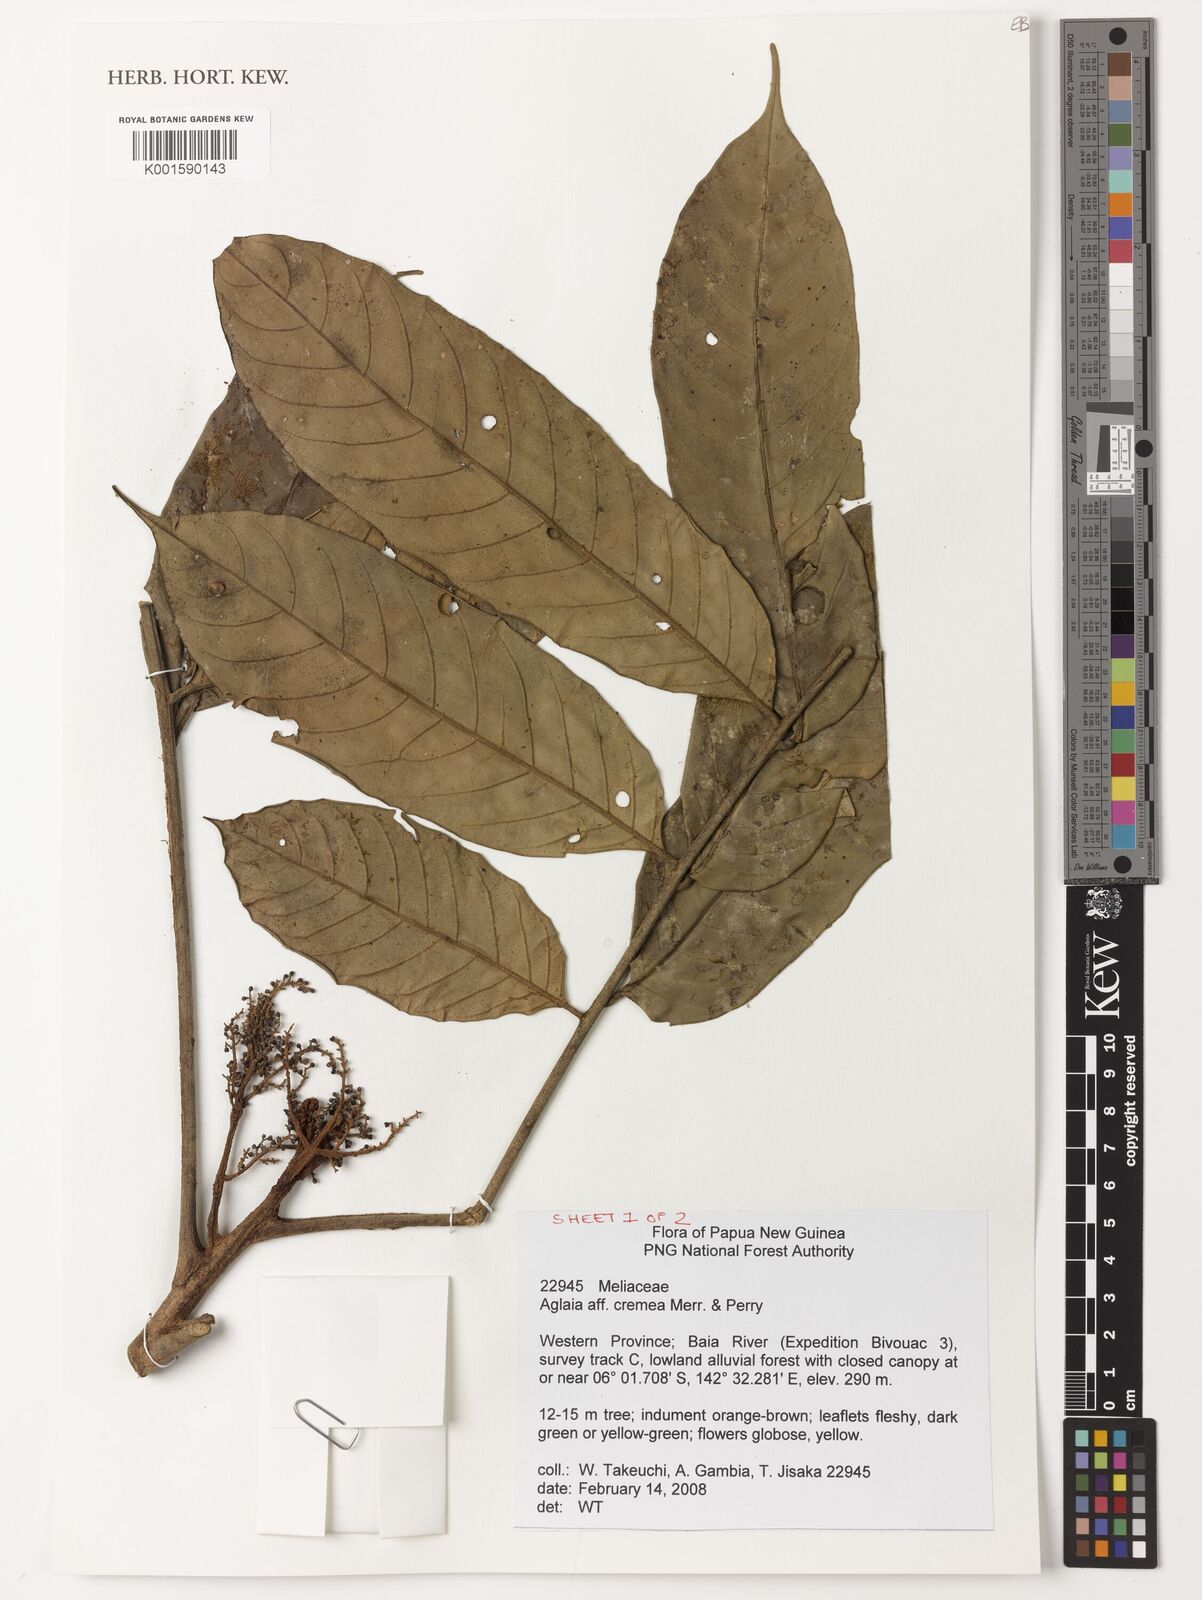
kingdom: Plantae
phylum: Tracheophyta
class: Magnoliopsida
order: Sapindales
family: Meliaceae
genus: Aglaia
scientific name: Aglaia cremea
